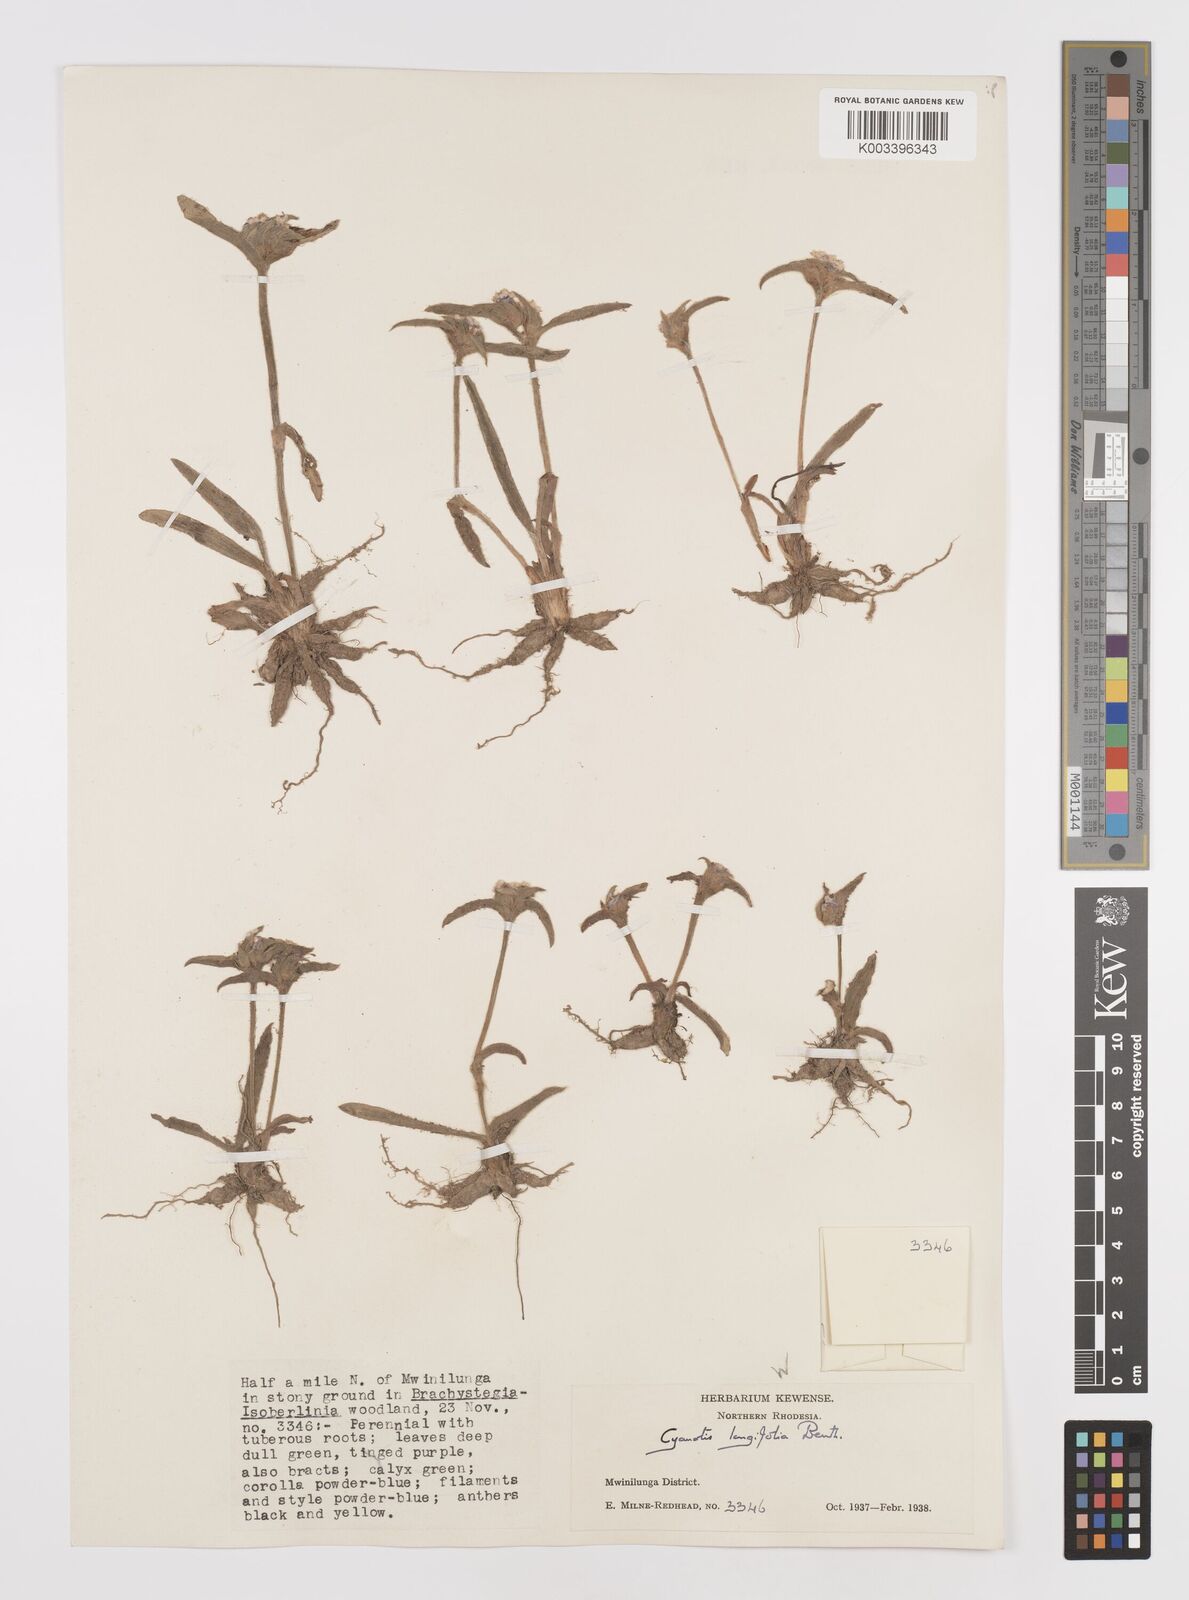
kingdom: Plantae
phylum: Tracheophyta
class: Liliopsida
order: Commelinales
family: Commelinaceae
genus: Cyanotis
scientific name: Cyanotis longifolia
